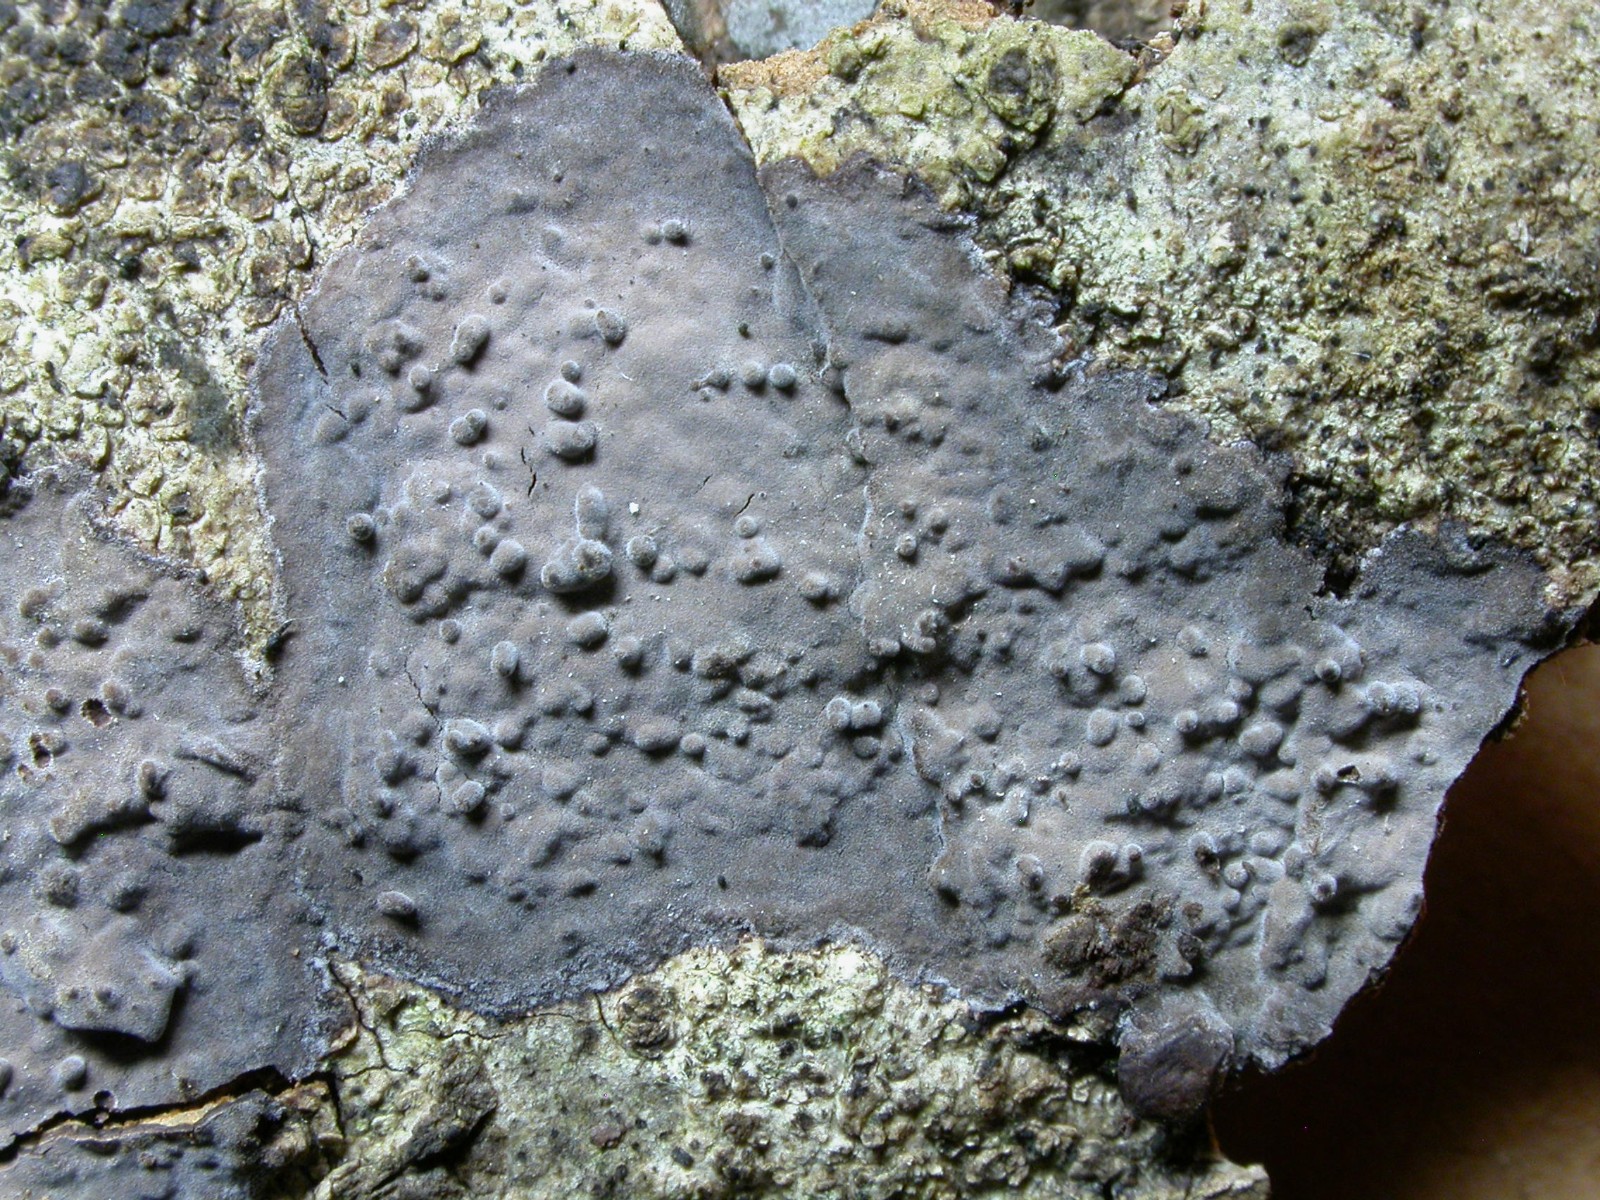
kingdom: Fungi
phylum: Basidiomycota
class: Agaricomycetes
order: Russulales
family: Peniophoraceae
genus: Peniophora
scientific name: Peniophora limitata
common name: mørkrandet voksskind
